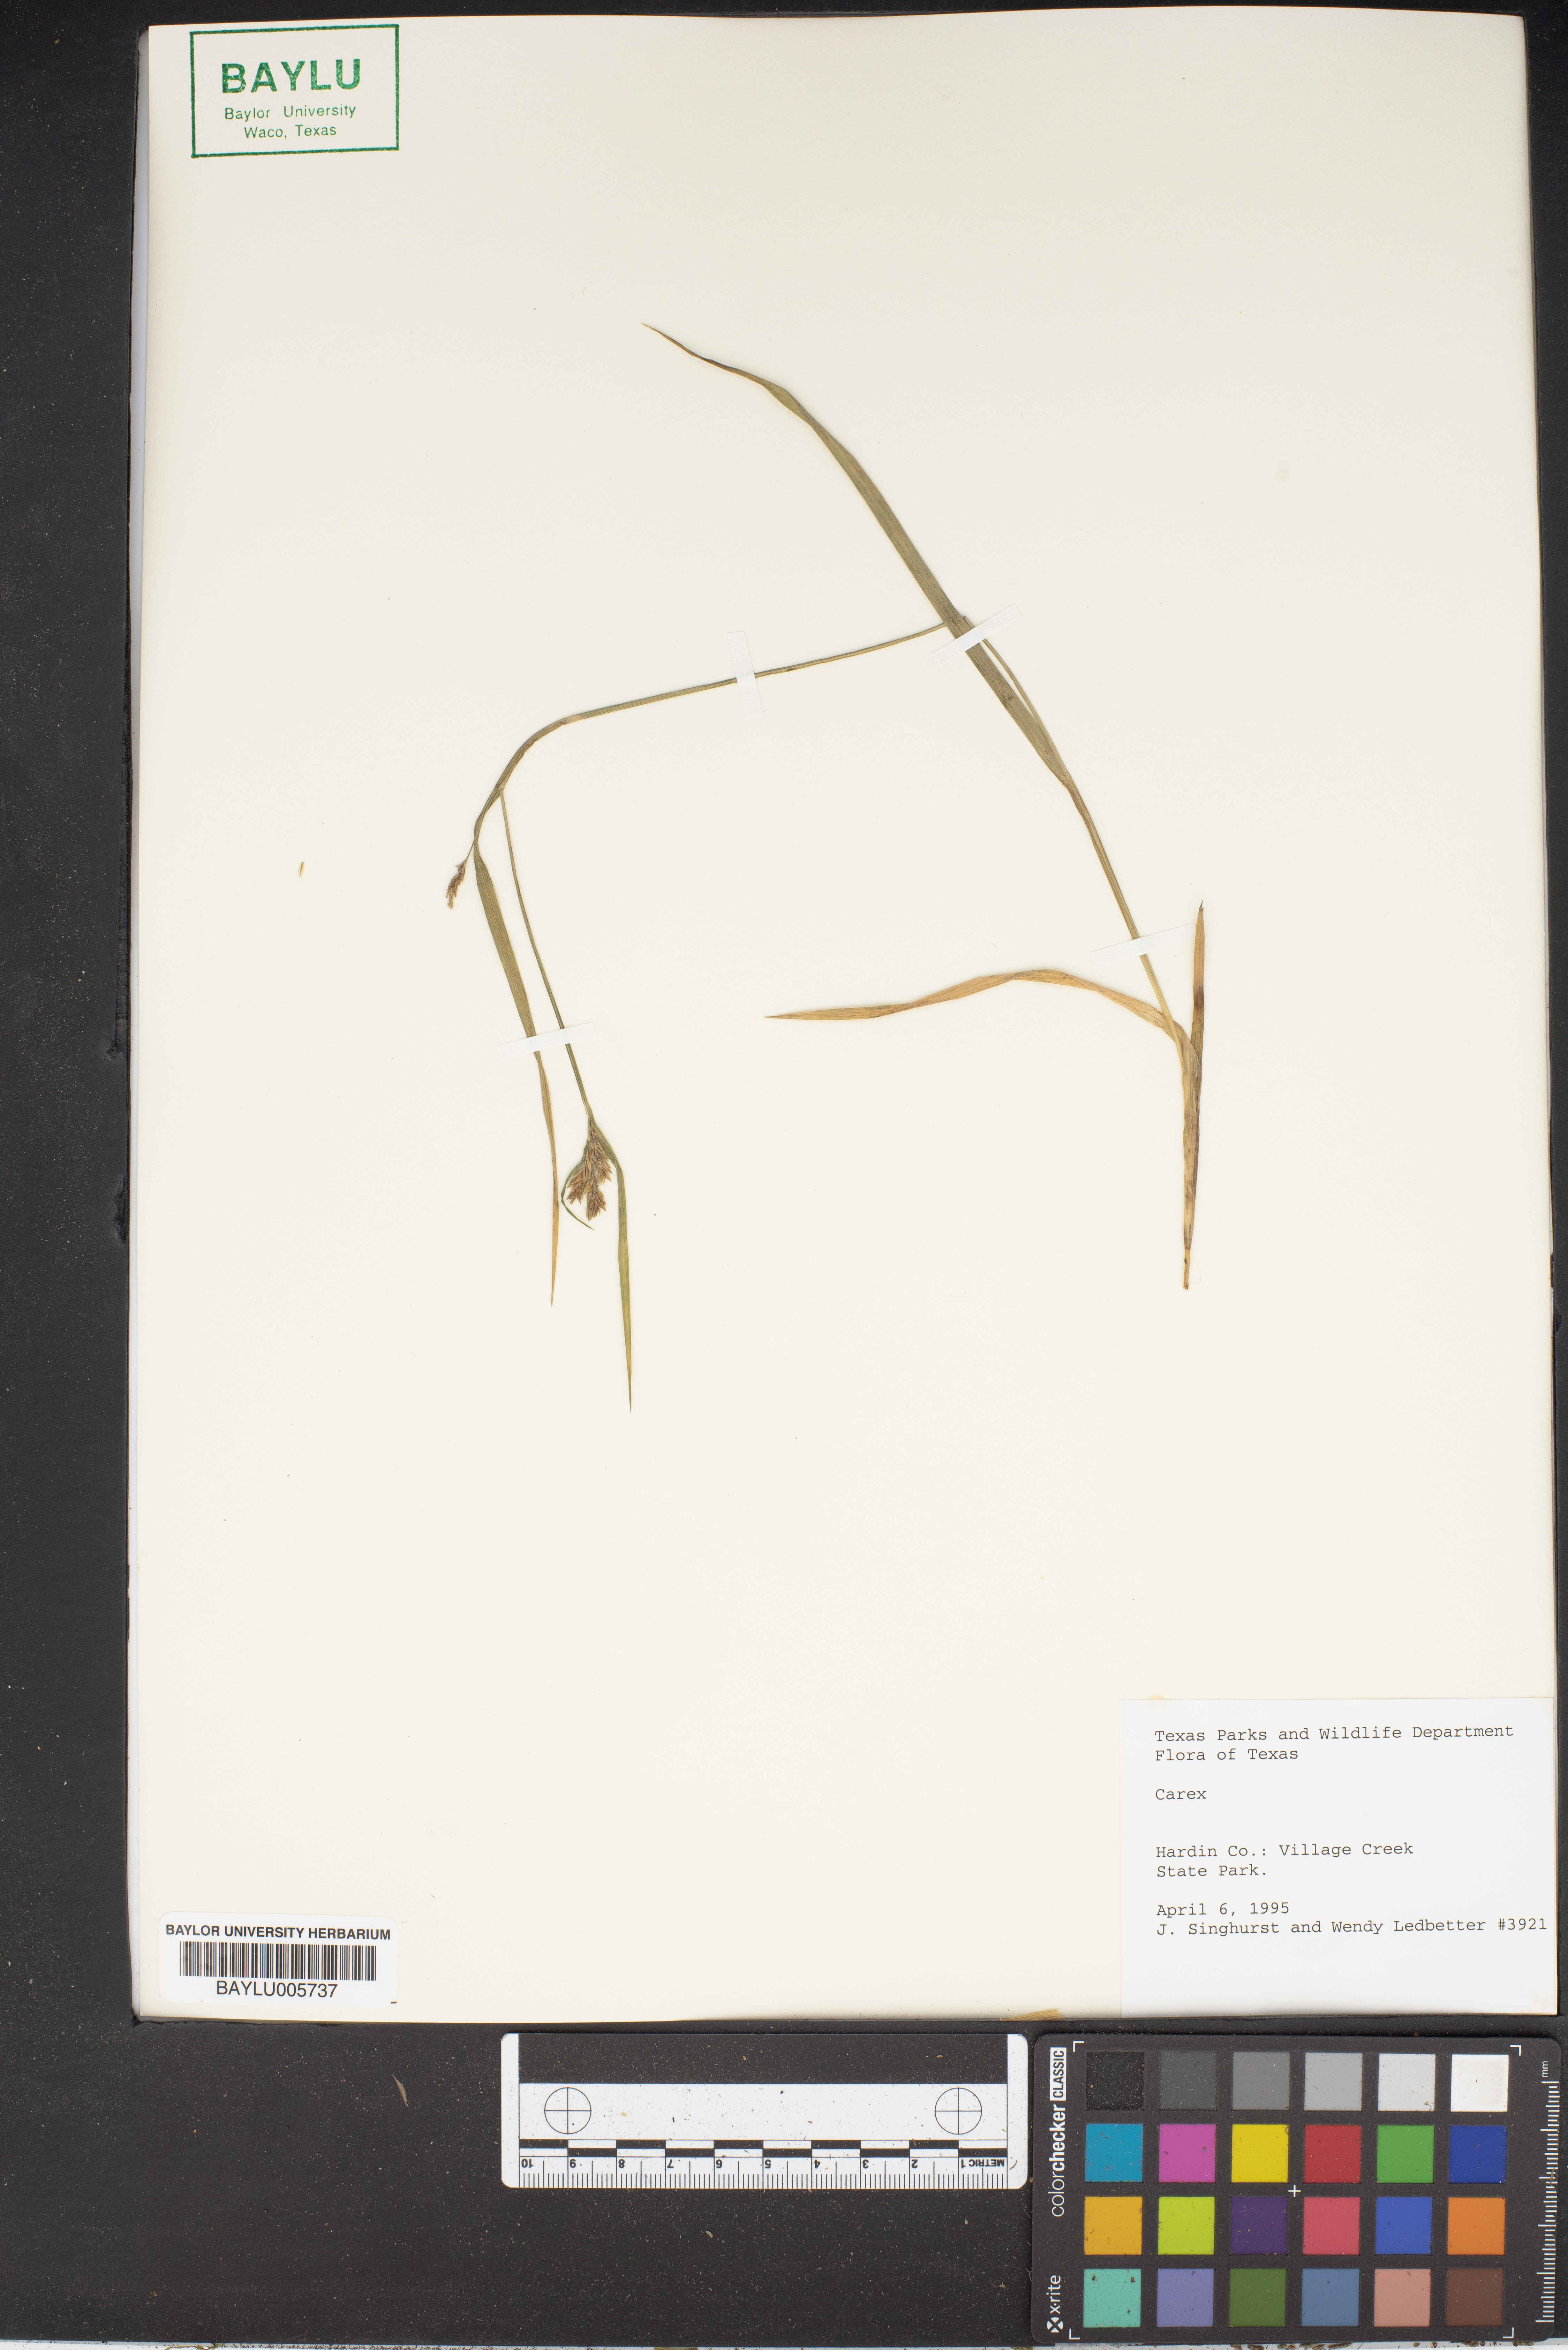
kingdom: Plantae
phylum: Tracheophyta
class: Liliopsida
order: Poales
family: Cyperaceae
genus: Carex
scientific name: Carex
